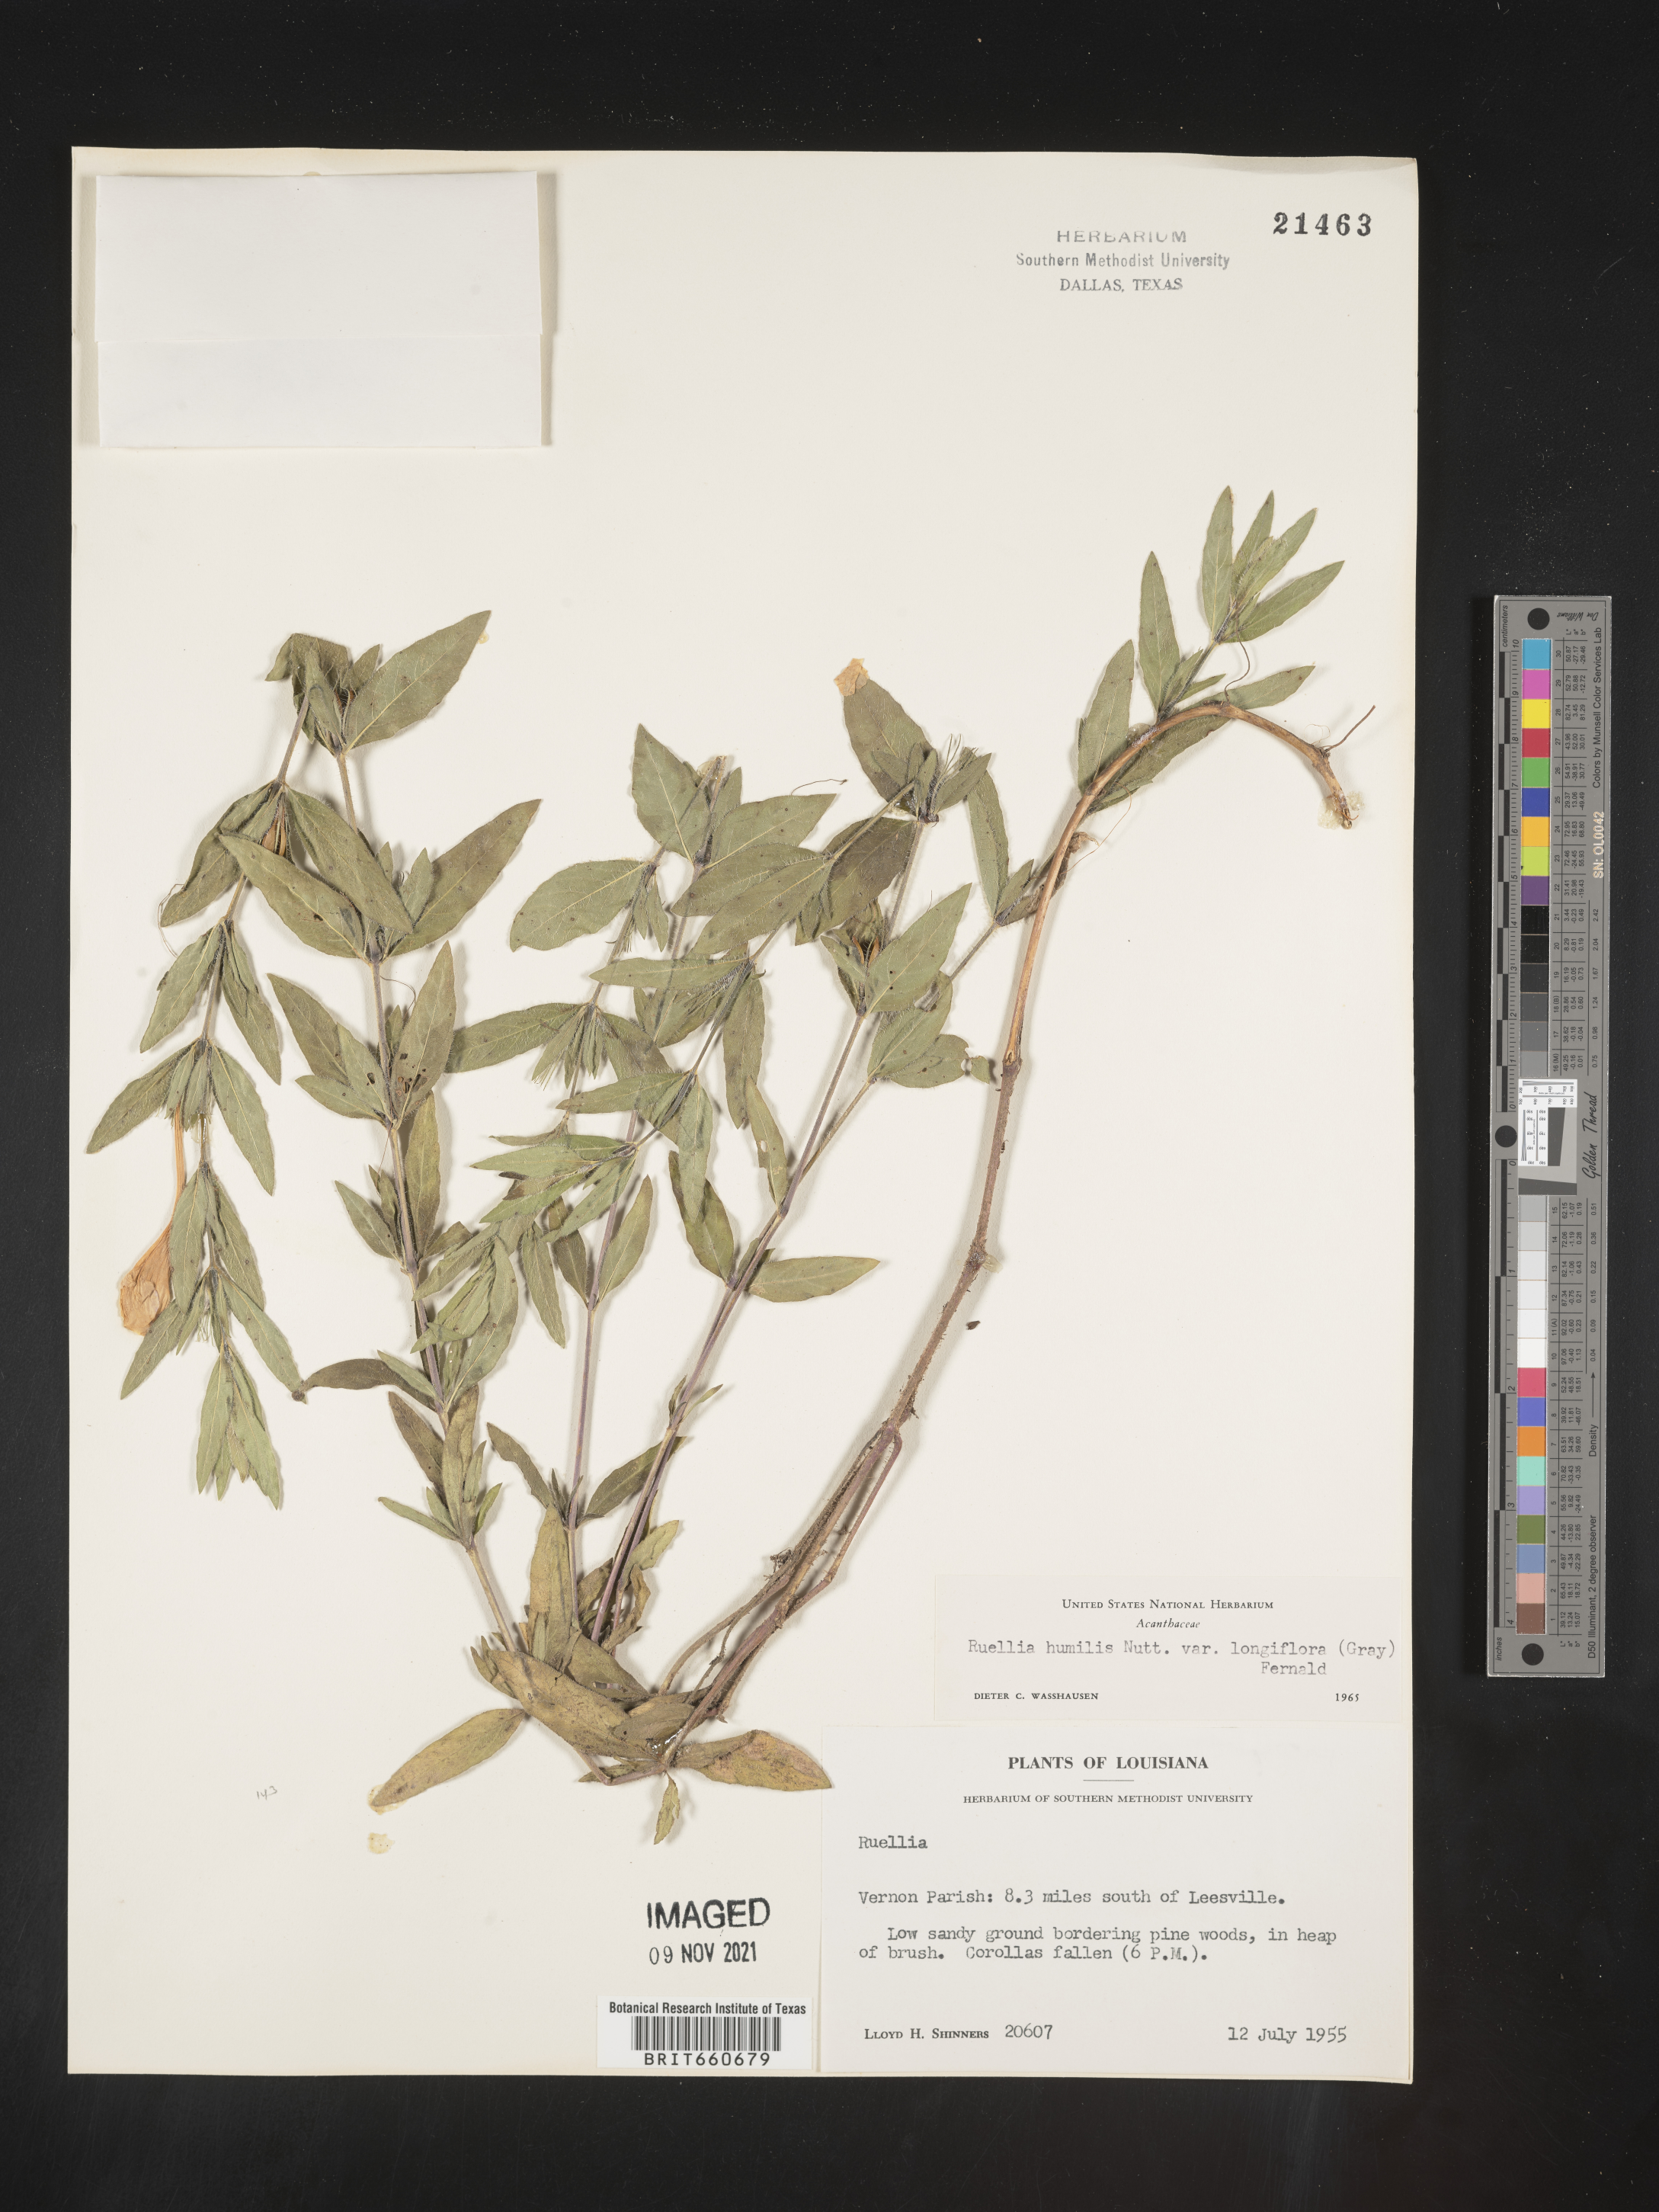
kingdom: Plantae
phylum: Tracheophyta
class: Magnoliopsida
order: Lamiales
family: Acanthaceae
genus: Ruellia
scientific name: Ruellia humilis
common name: Fringe-leaf ruellia
